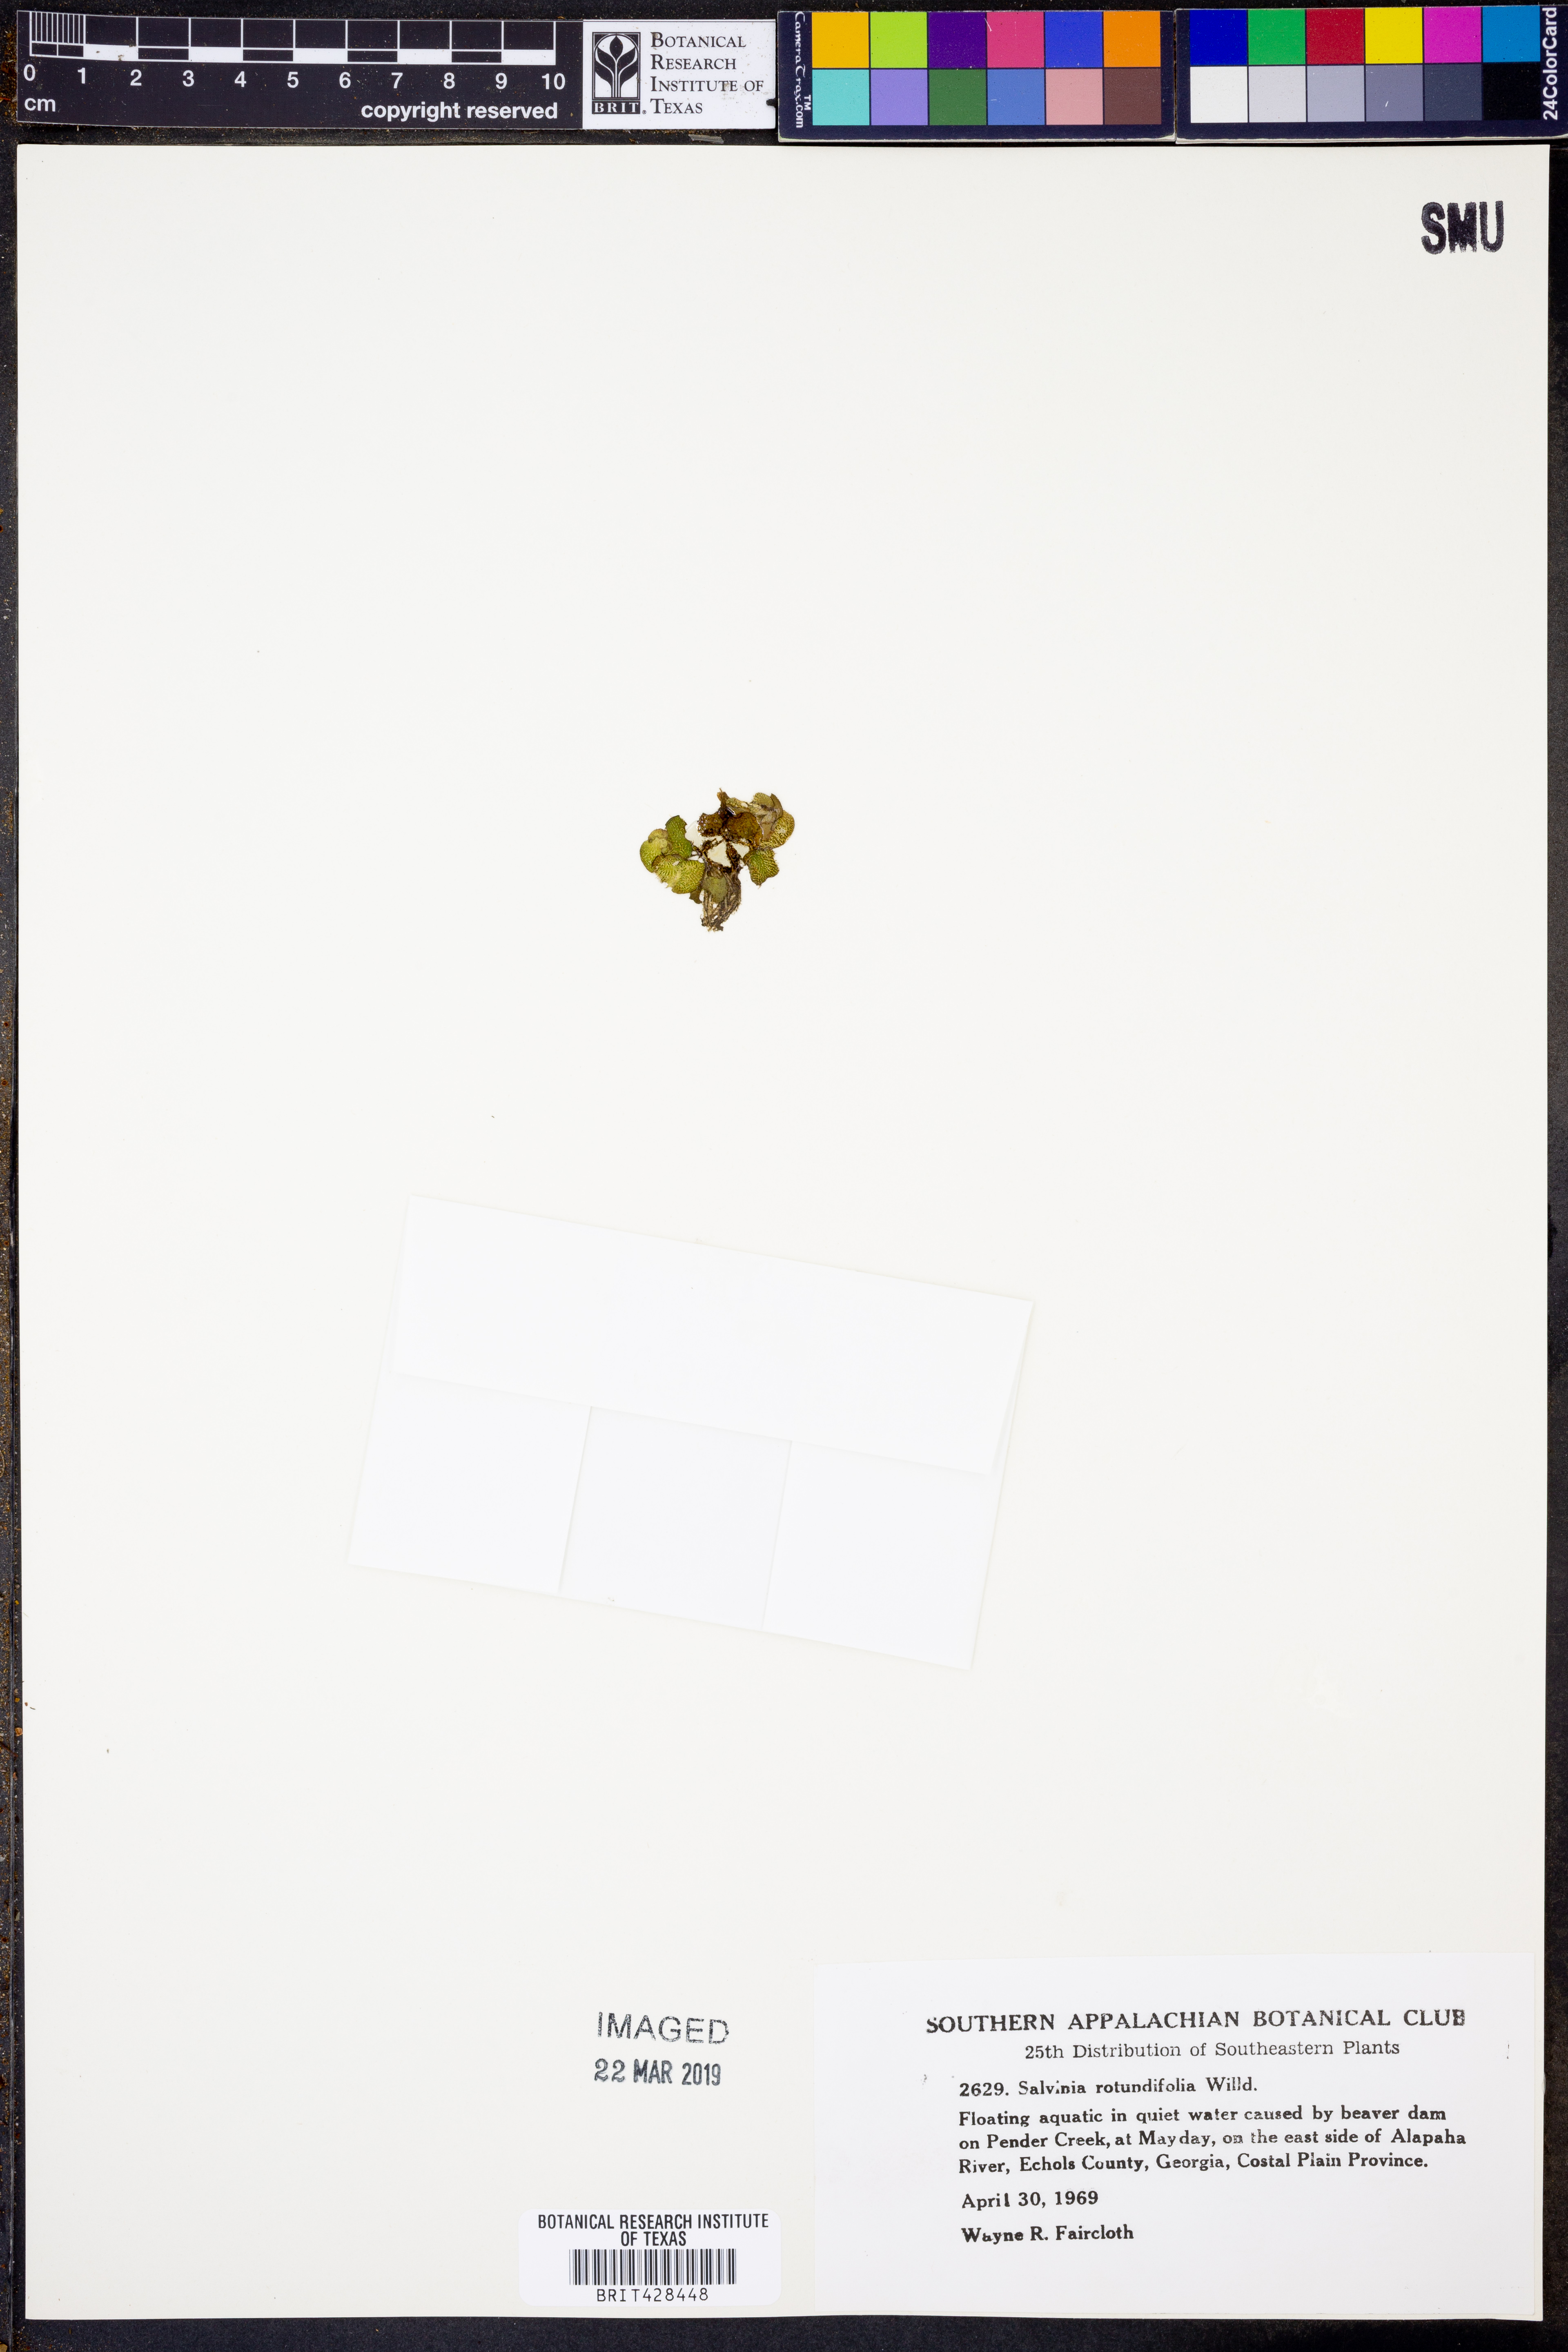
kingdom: Plantae
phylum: Tracheophyta
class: Polypodiopsida
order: Salviniales
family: Salviniaceae
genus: Salvinia
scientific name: Salvinia auriculata
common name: African payal
